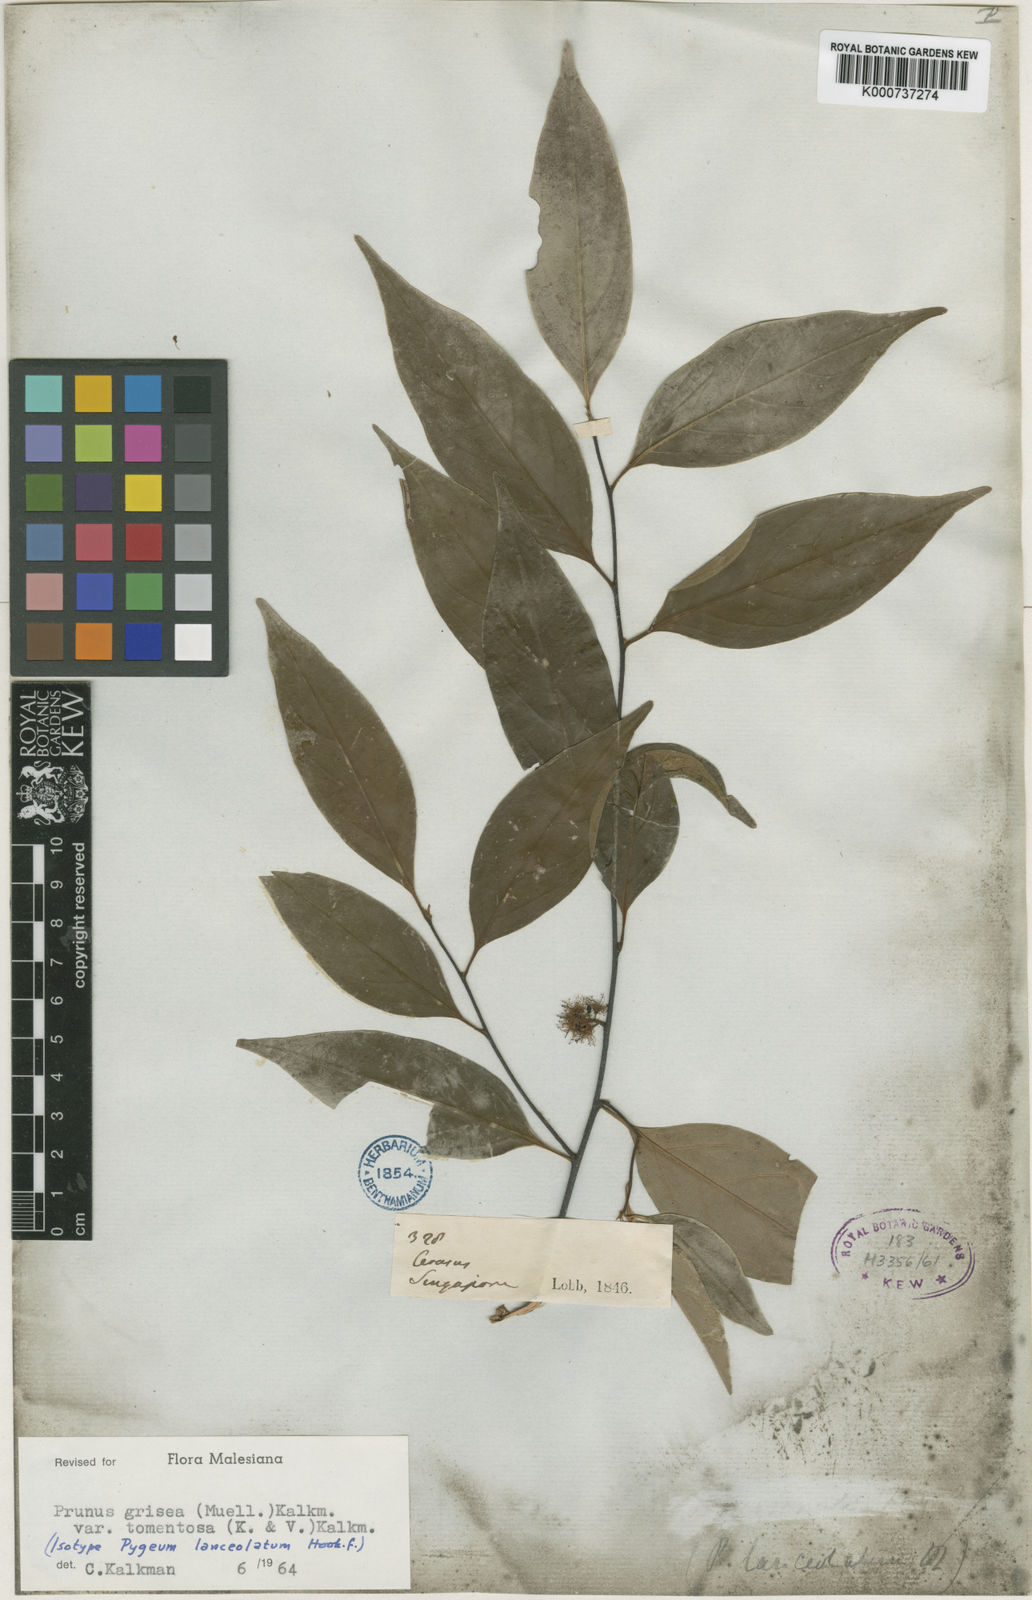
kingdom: Plantae
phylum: Tracheophyta
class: Magnoliopsida
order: Rosales
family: Rosaceae
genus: Prunus
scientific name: Prunus
